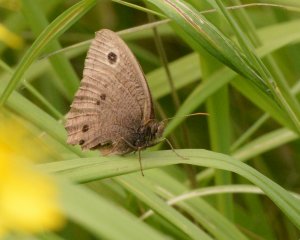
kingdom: Animalia
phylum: Arthropoda
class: Insecta
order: Lepidoptera
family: Nymphalidae
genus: Cercyonis
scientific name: Cercyonis pegala
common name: Common Wood-Nymph
